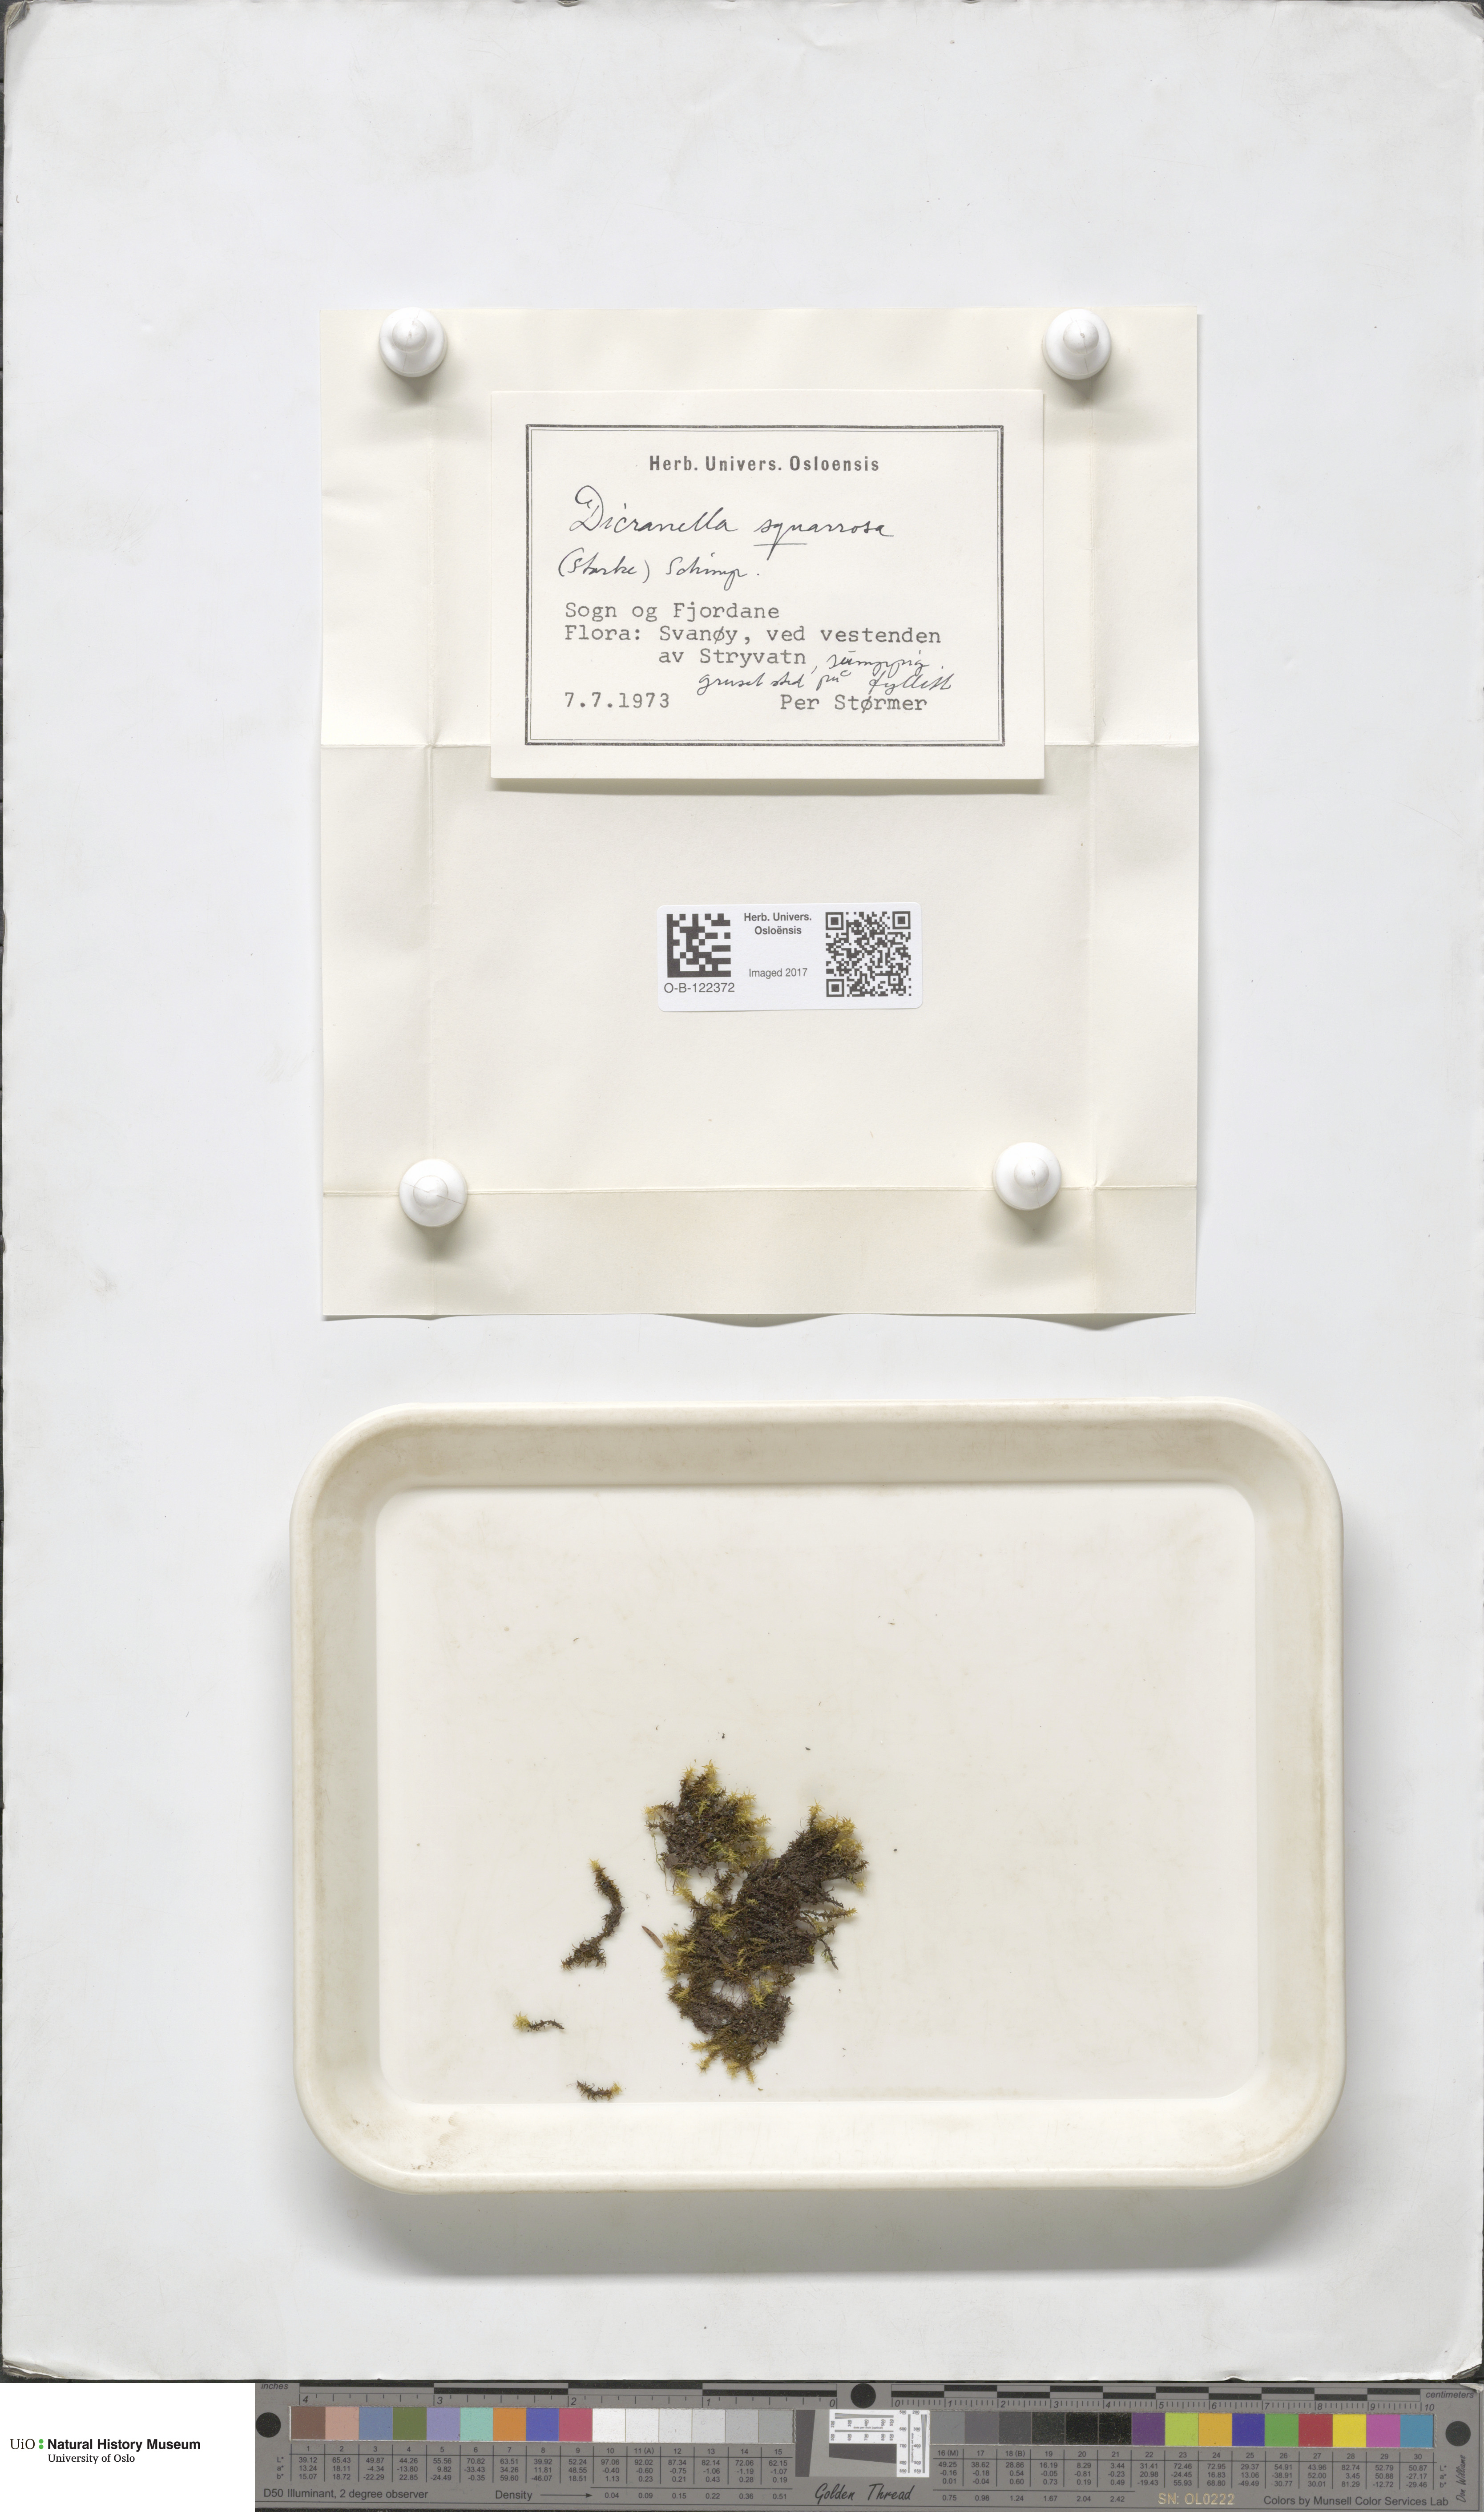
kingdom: Plantae
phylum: Bryophyta
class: Bryopsida
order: Dicranales
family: Aongstroemiaceae
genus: Diobelonella
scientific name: Diobelonella palustris
